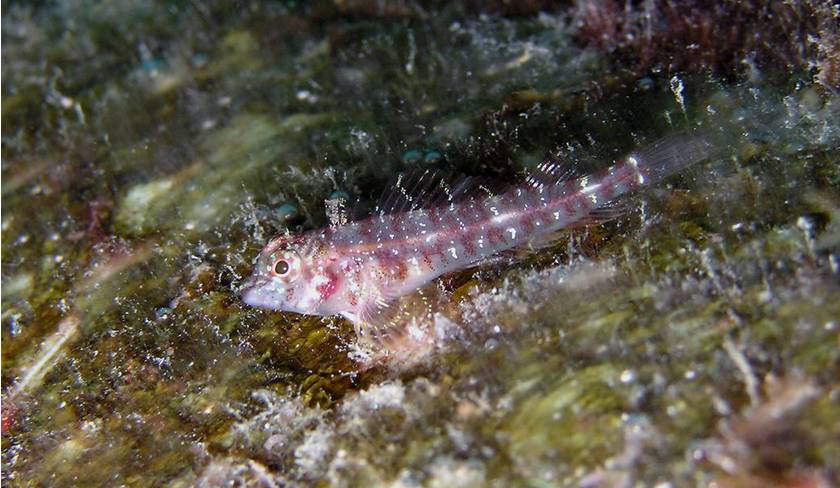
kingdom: Animalia
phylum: Chordata
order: Perciformes
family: Tripterygiidae
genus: Helcogramma
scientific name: Helcogramma obtusirostris
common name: Shortsnout triplefin
